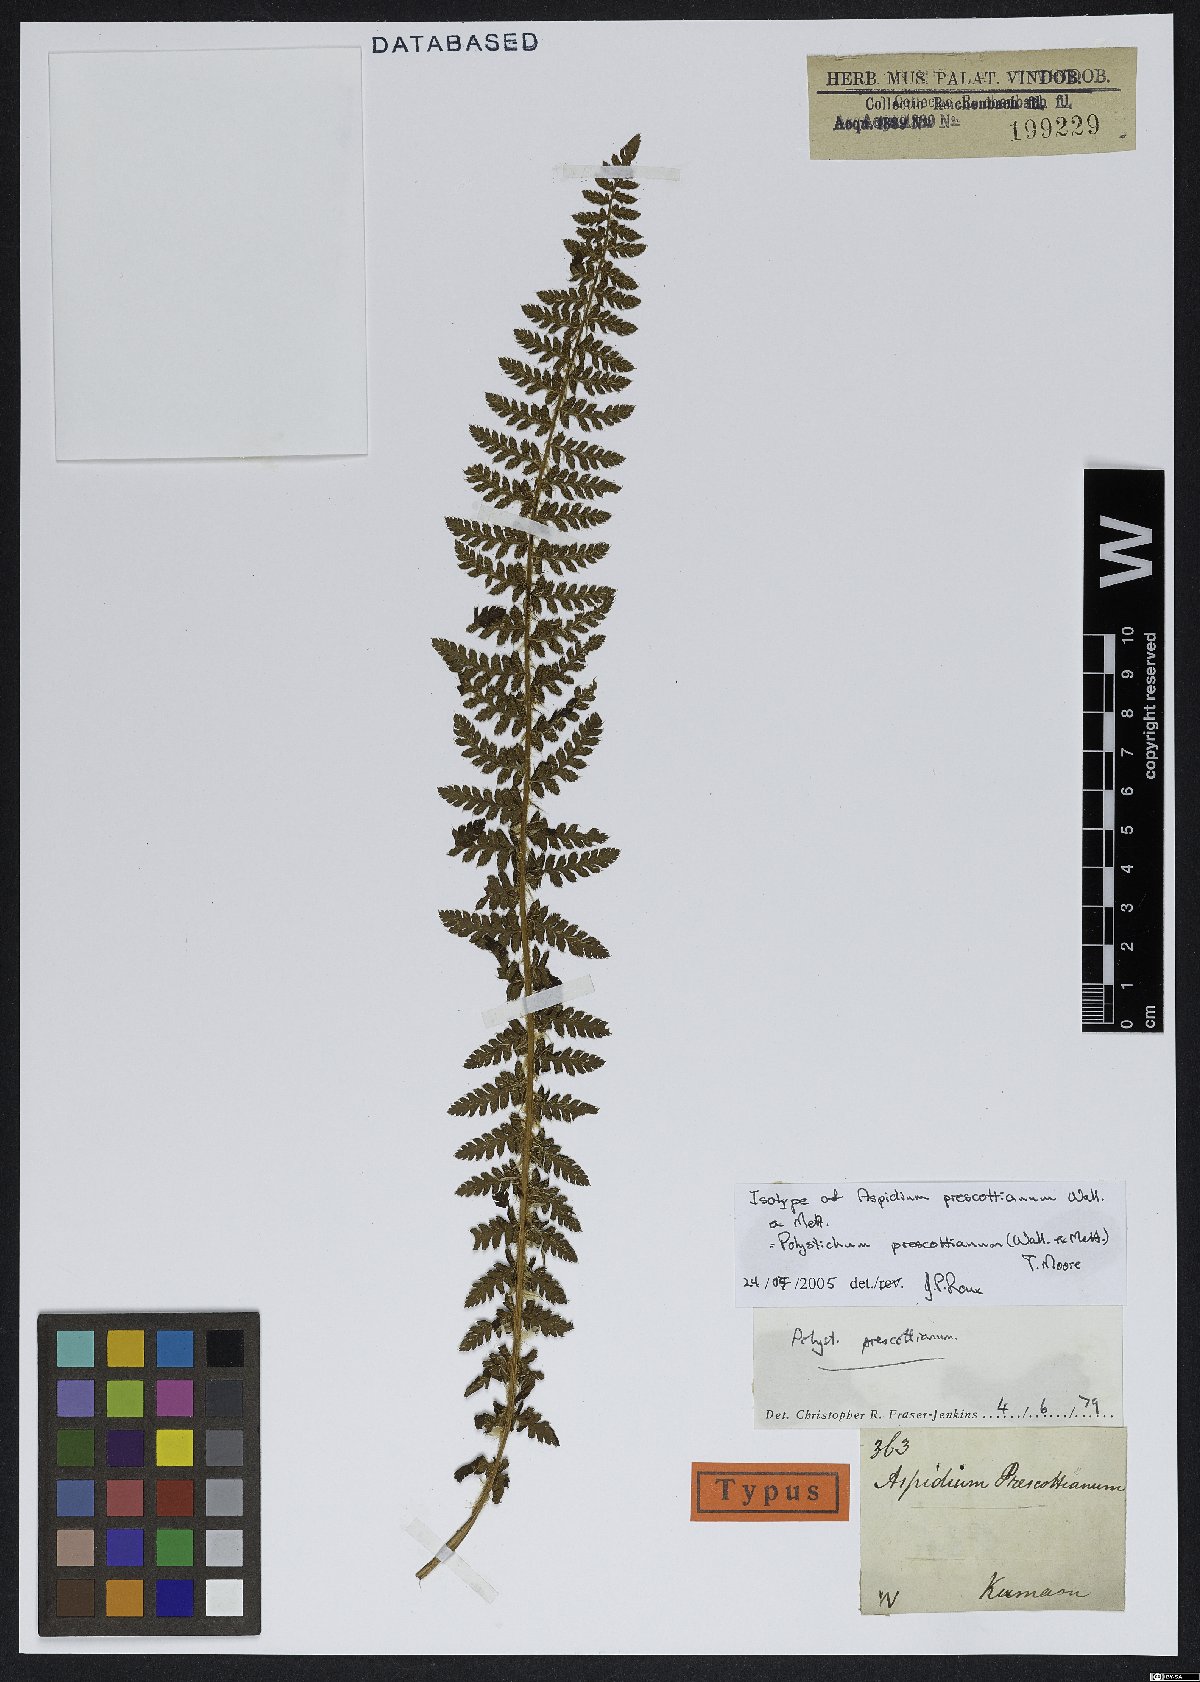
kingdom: Plantae
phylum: Tracheophyta
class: Polypodiopsida
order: Polypodiales
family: Dryopteridaceae
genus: Polystichum
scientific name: Polystichum prescottianum
